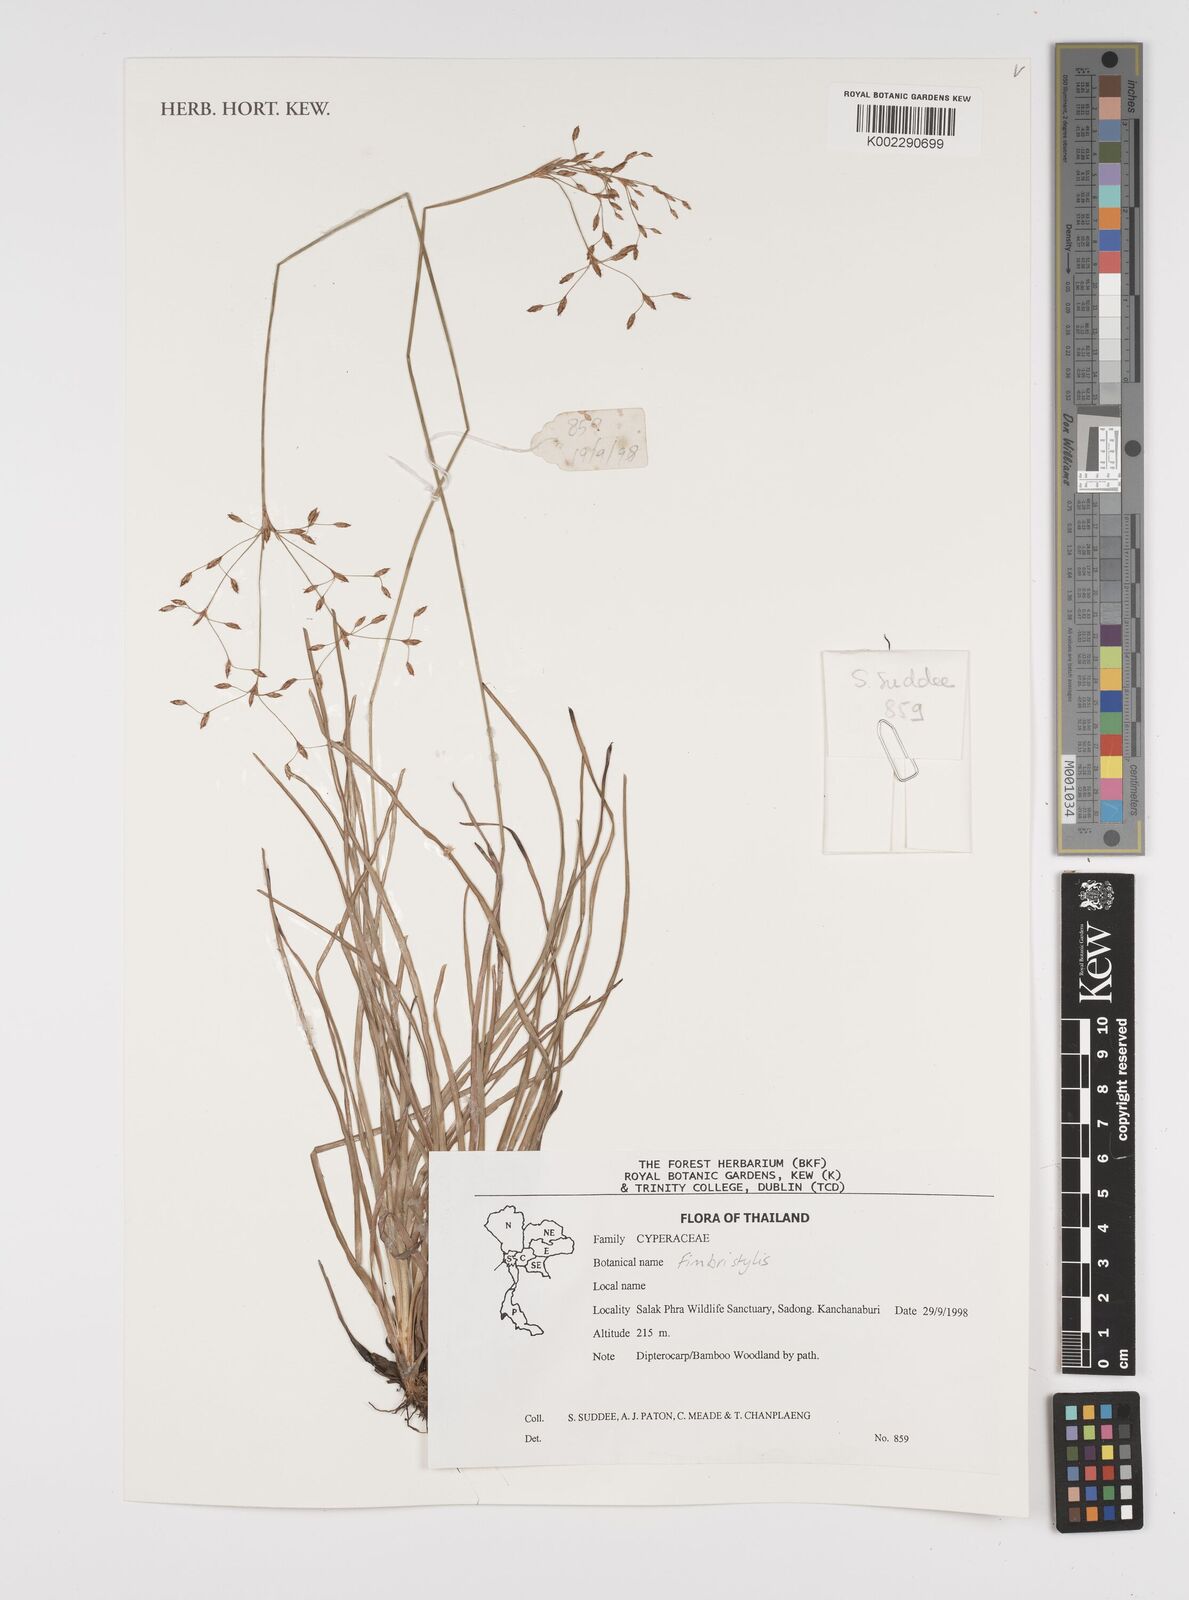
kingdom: Plantae
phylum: Tracheophyta
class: Liliopsida
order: Poales
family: Cyperaceae
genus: Fimbristylis
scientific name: Fimbristylis
